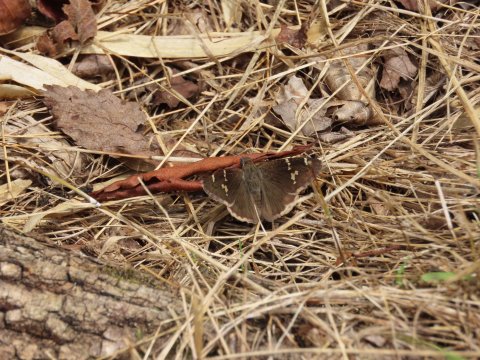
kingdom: Animalia
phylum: Arthropoda
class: Insecta
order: Lepidoptera
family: Hesperiidae
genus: Autochton
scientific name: Autochton
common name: Southern Cloudywing
